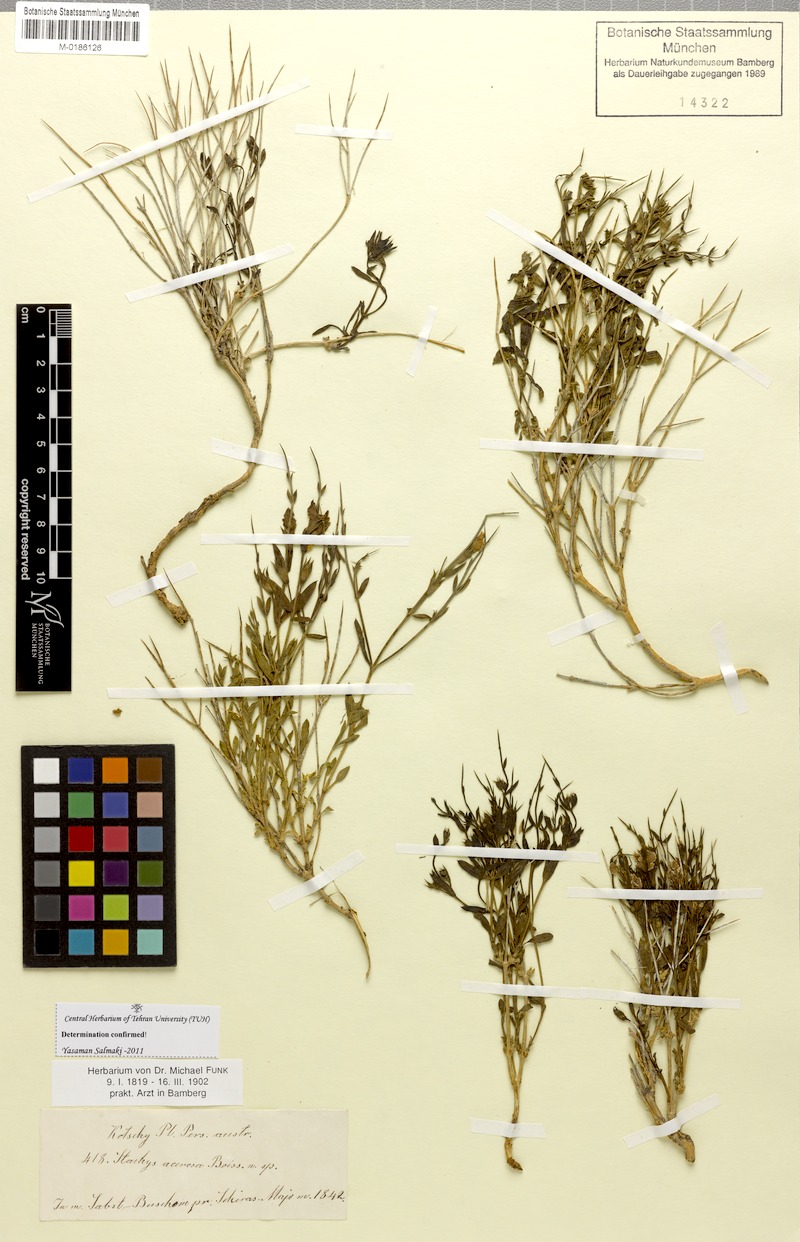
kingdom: Plantae
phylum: Tracheophyta
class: Magnoliopsida
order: Lamiales
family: Lamiaceae
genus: Stachys
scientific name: Stachys acerosa
